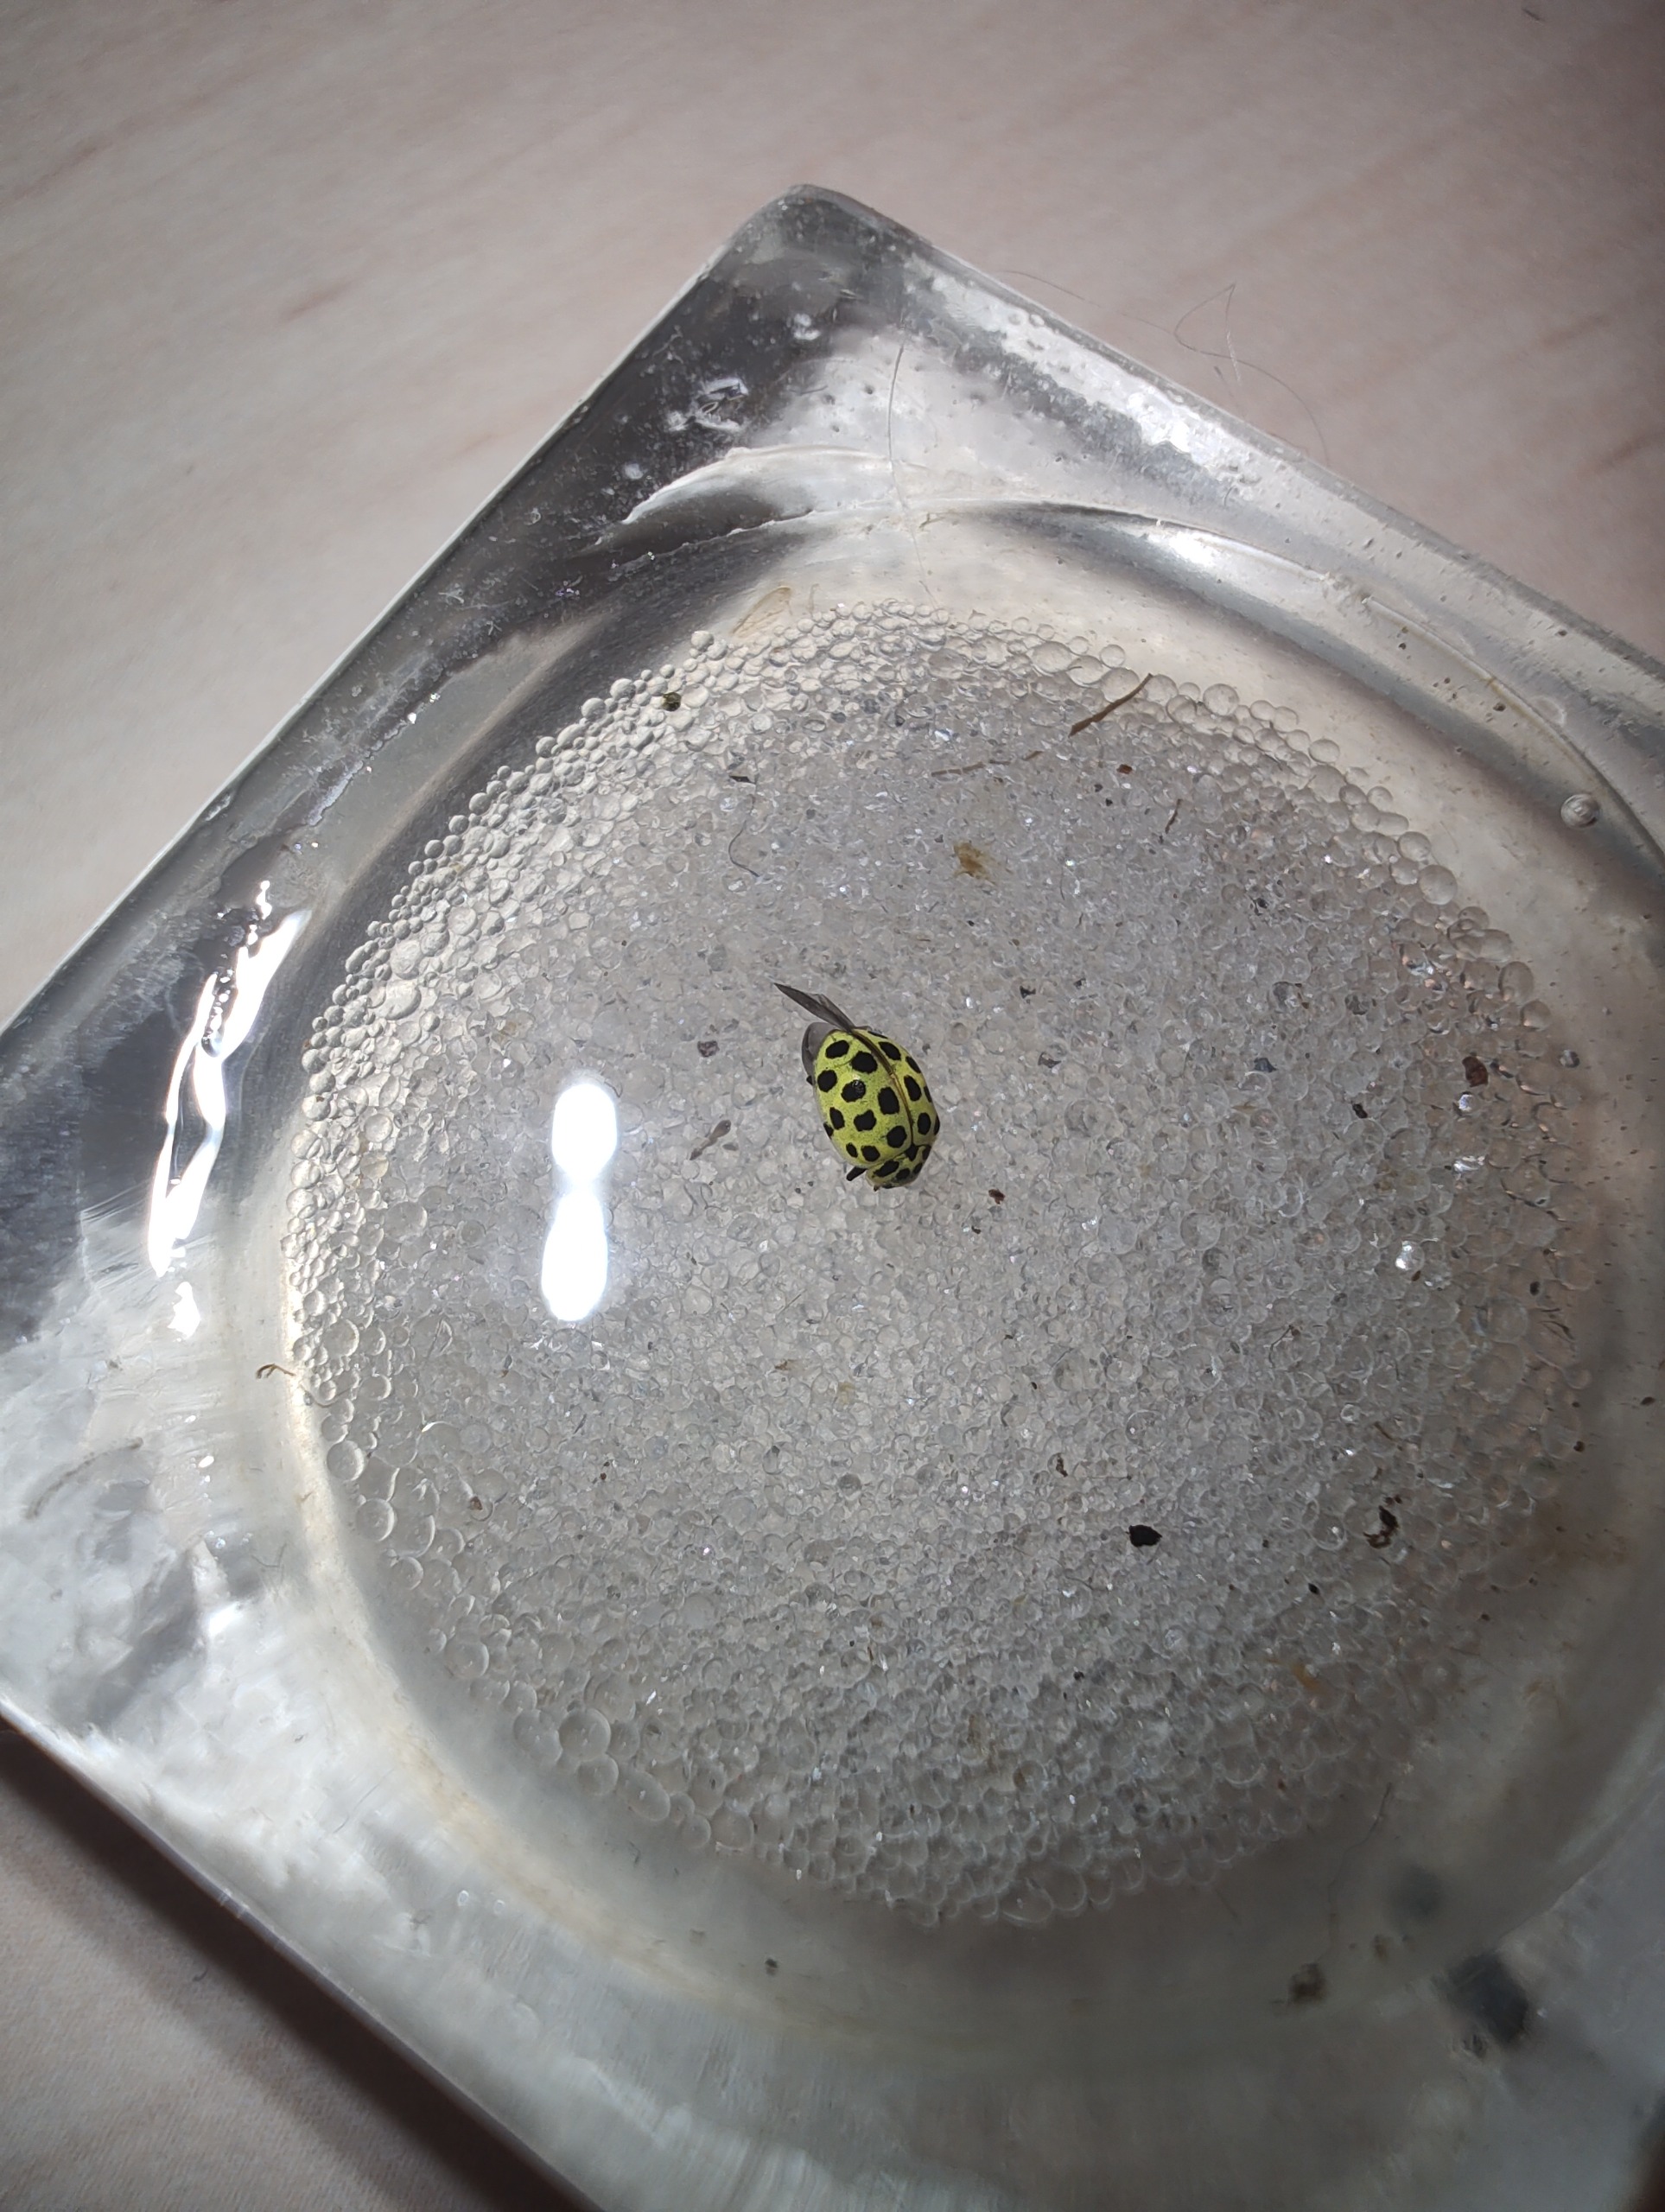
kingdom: Animalia
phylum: Arthropoda
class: Insecta
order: Coleoptera
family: Coccinellidae
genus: Psyllobora
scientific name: Psyllobora vigintiduopunctata
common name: Toogtyveplettet mariehøne
